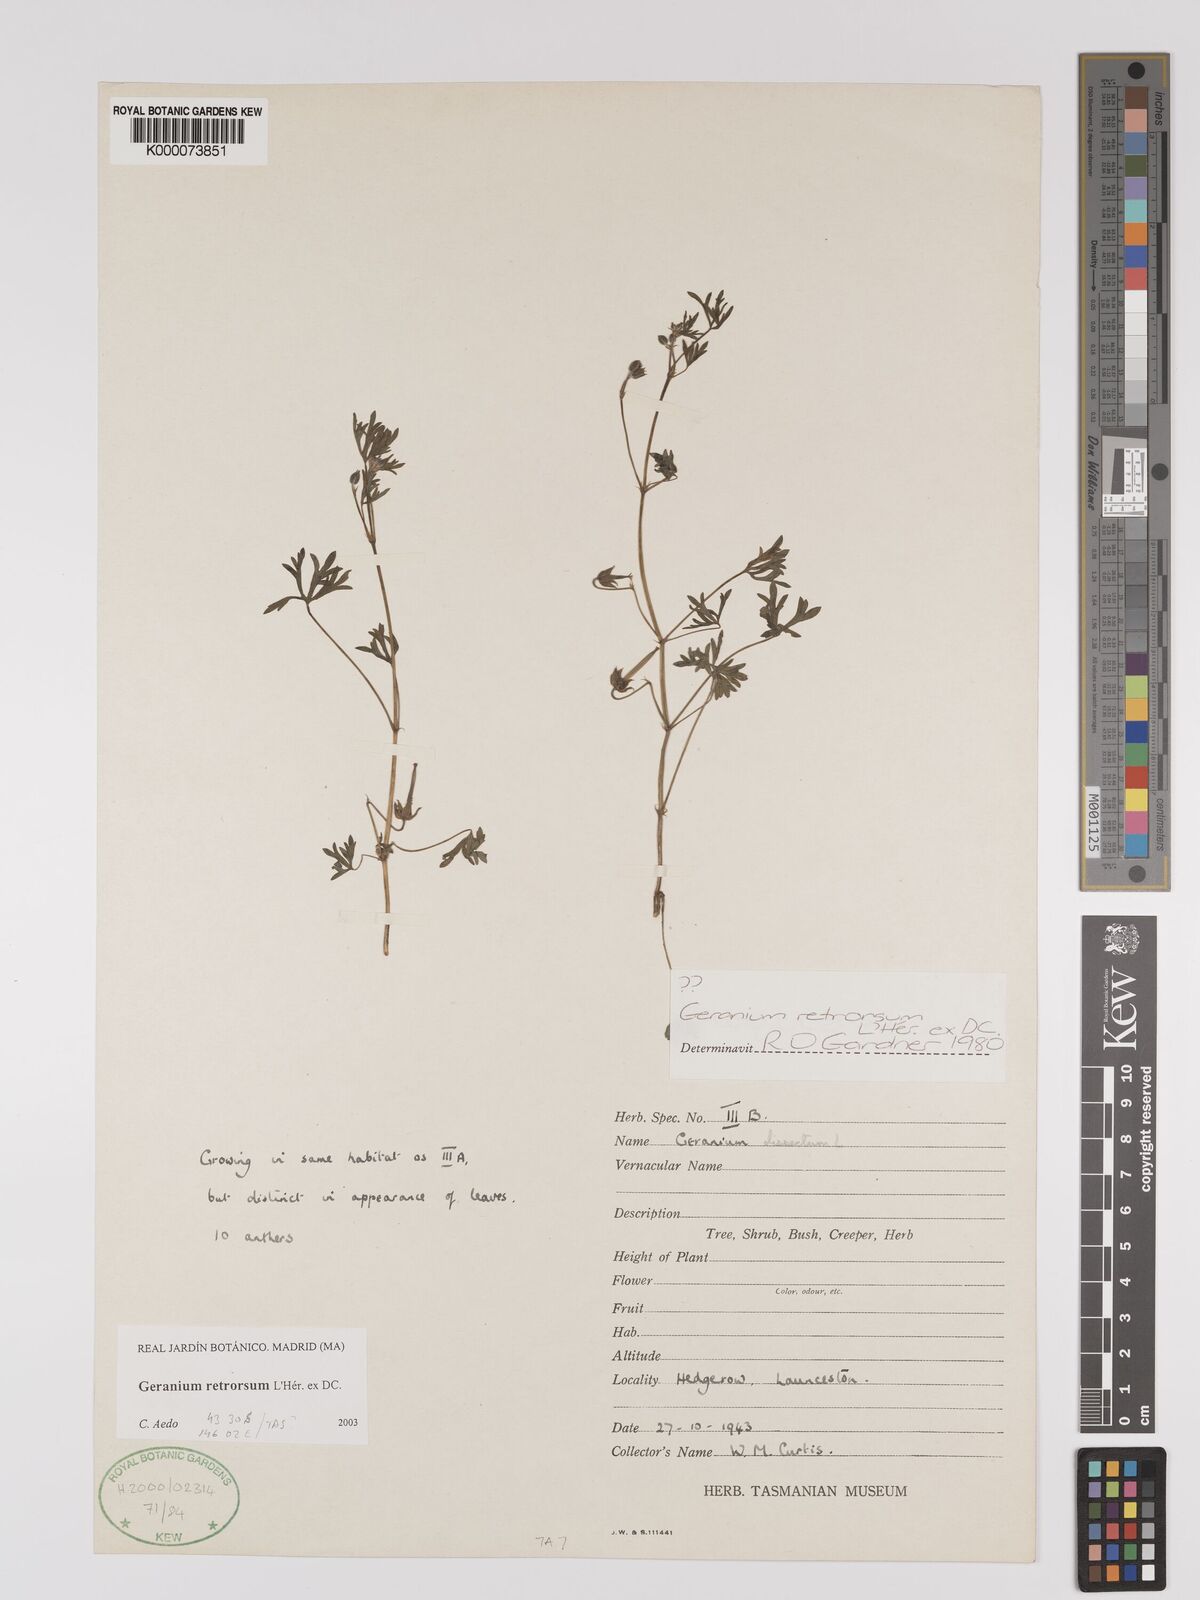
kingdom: Plantae
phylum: Tracheophyta
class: Magnoliopsida
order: Geraniales
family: Geraniaceae
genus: Geranium
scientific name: Geranium retrorsum
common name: New zealand geranium
